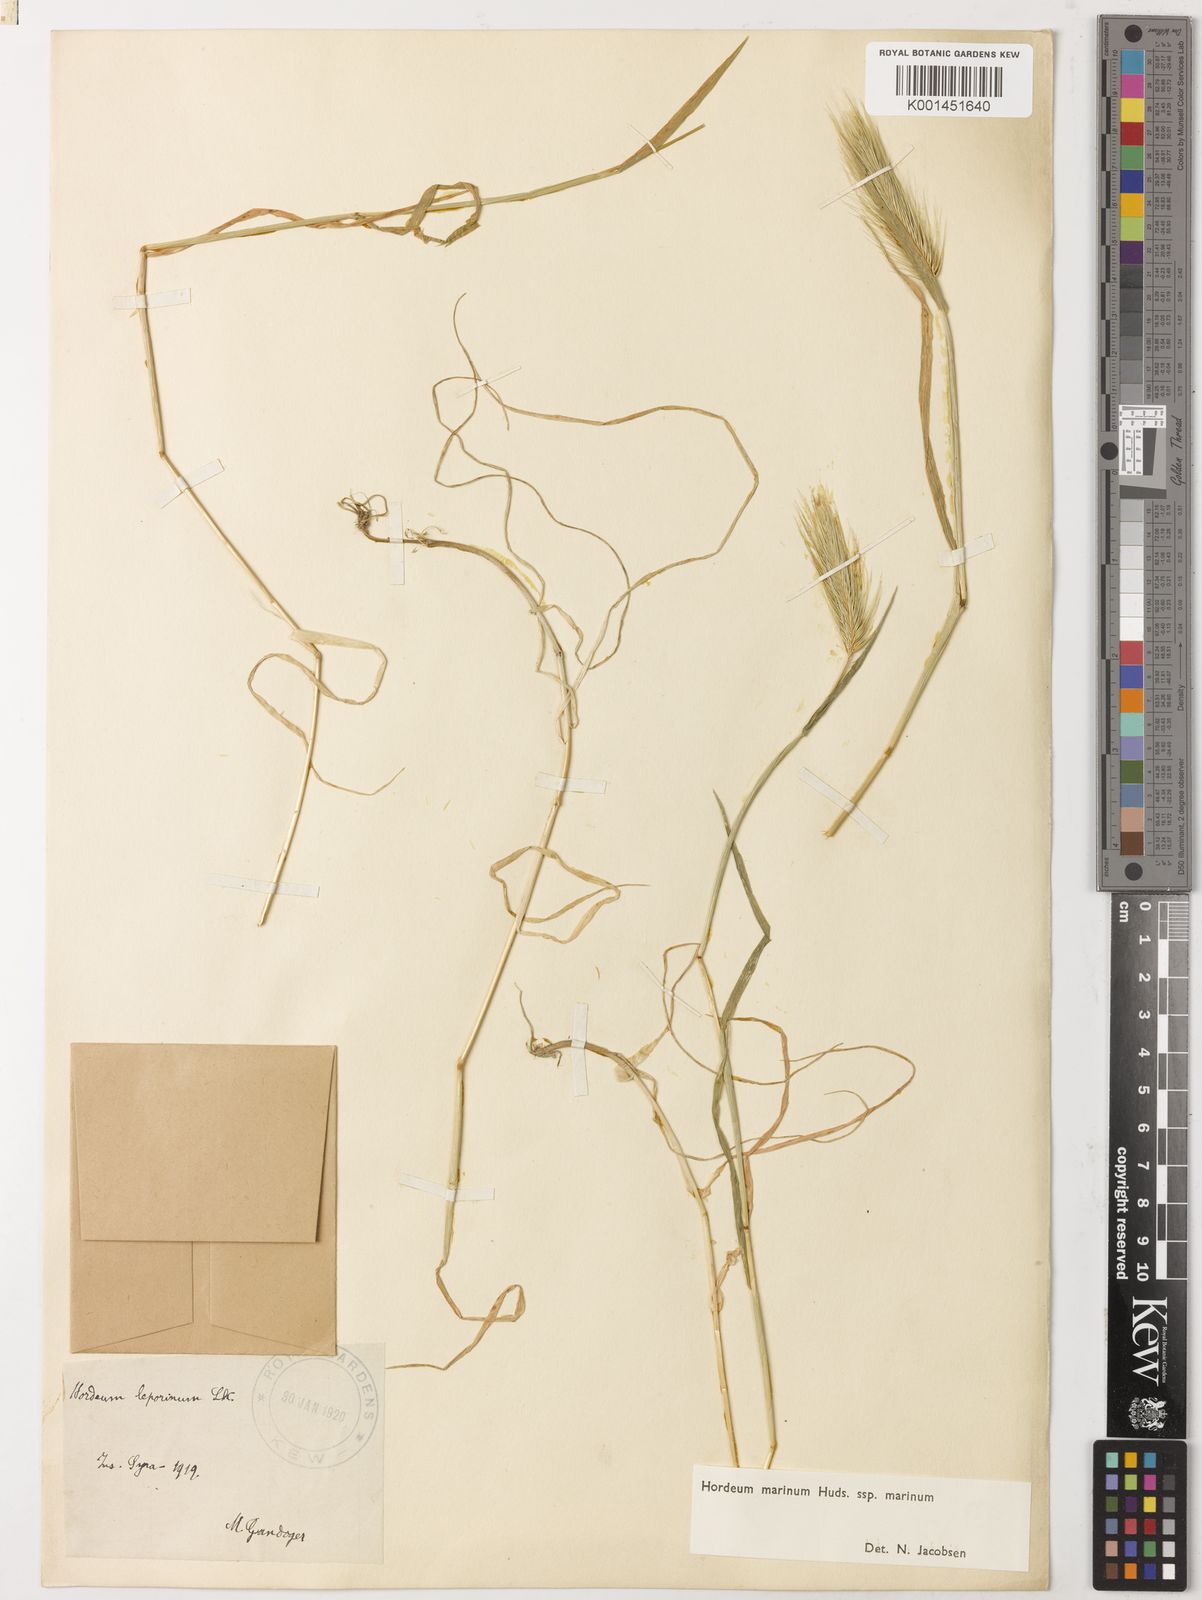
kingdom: Plantae
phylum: Tracheophyta
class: Liliopsida
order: Poales
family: Poaceae
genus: Hordeum
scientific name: Hordeum marinum
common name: Sea barley
